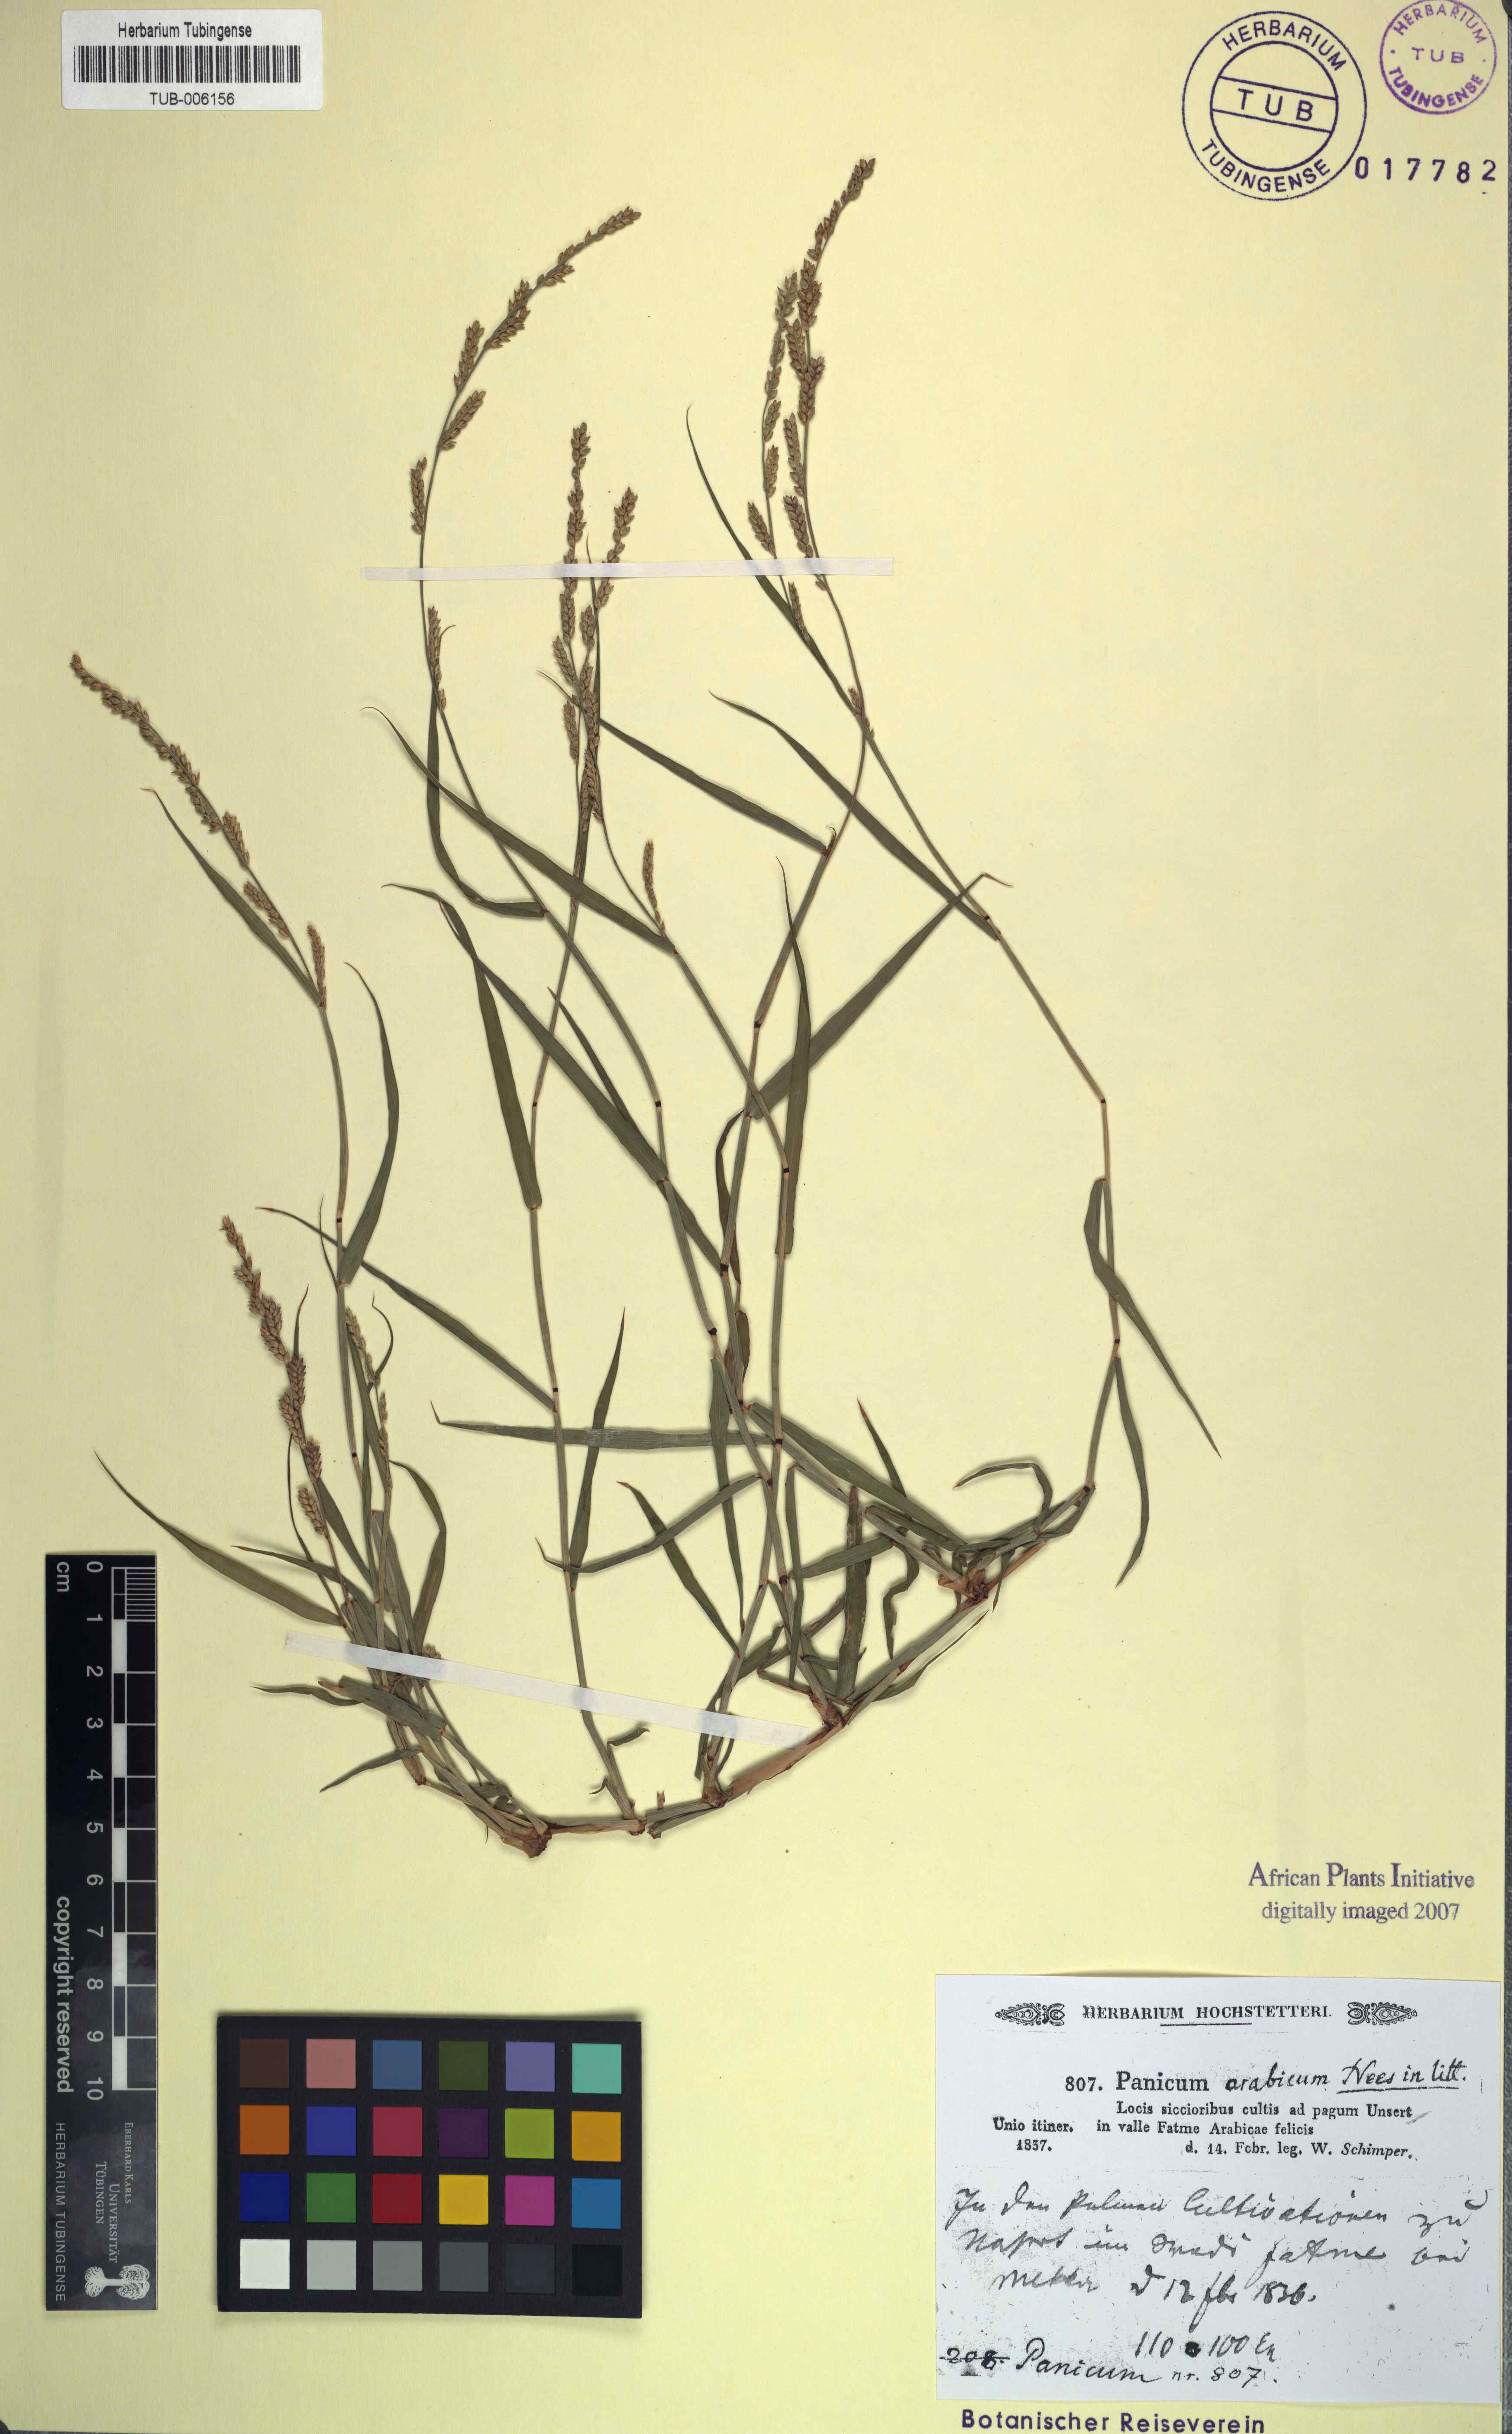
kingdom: Plantae
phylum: Tracheophyta
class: Liliopsida
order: Poales
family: Poaceae
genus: Echinochloa
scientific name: Echinochloa colonum
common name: Jungle rice
